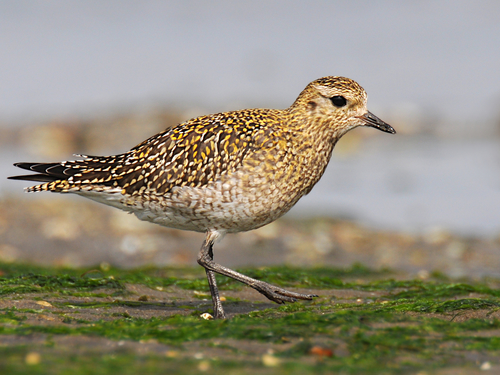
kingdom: Animalia
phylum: Chordata
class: Aves
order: Charadriiformes
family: Charadriidae
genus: Pluvialis
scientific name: Pluvialis apricaria
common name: European golden plover
